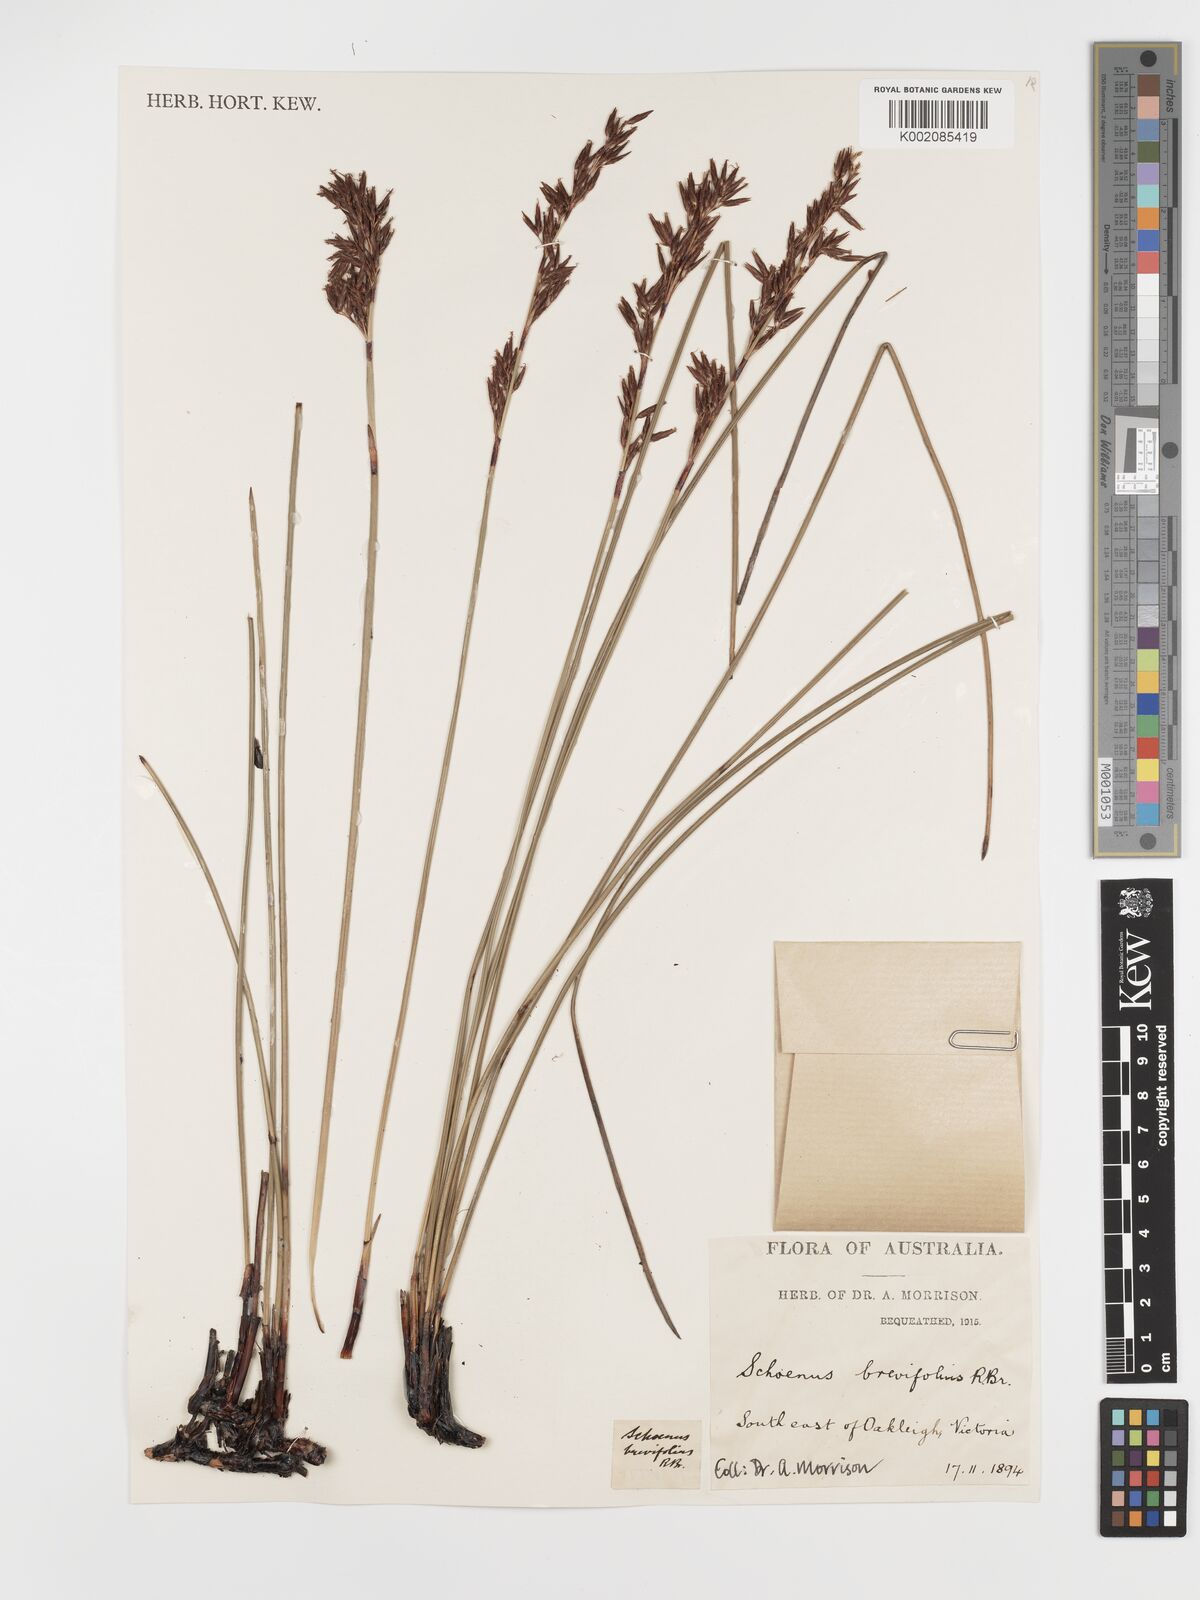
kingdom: Plantae
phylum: Tracheophyta
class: Liliopsida
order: Poales
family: Cyperaceae
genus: Schoenus
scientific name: Schoenus brevifolius
